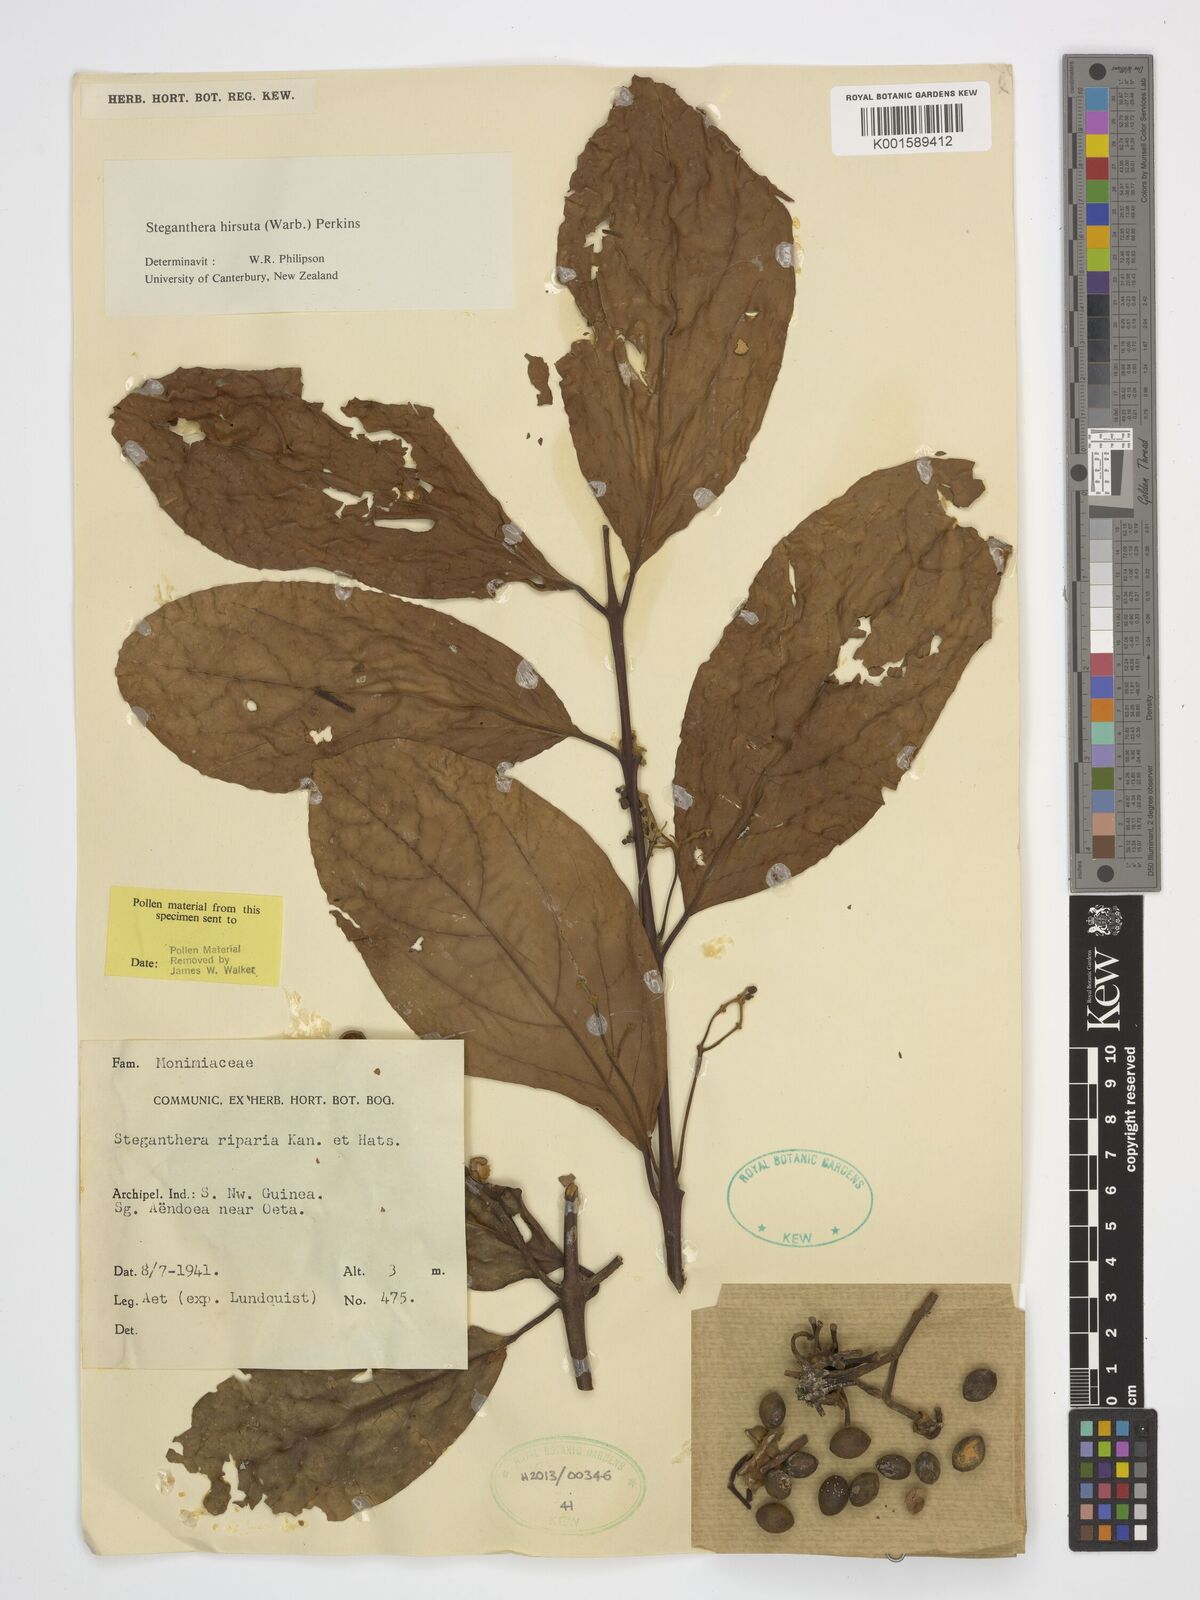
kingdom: Plantae
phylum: Tracheophyta
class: Magnoliopsida
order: Laurales
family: Monimiaceae
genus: Steganthera
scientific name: Steganthera hirsuta
